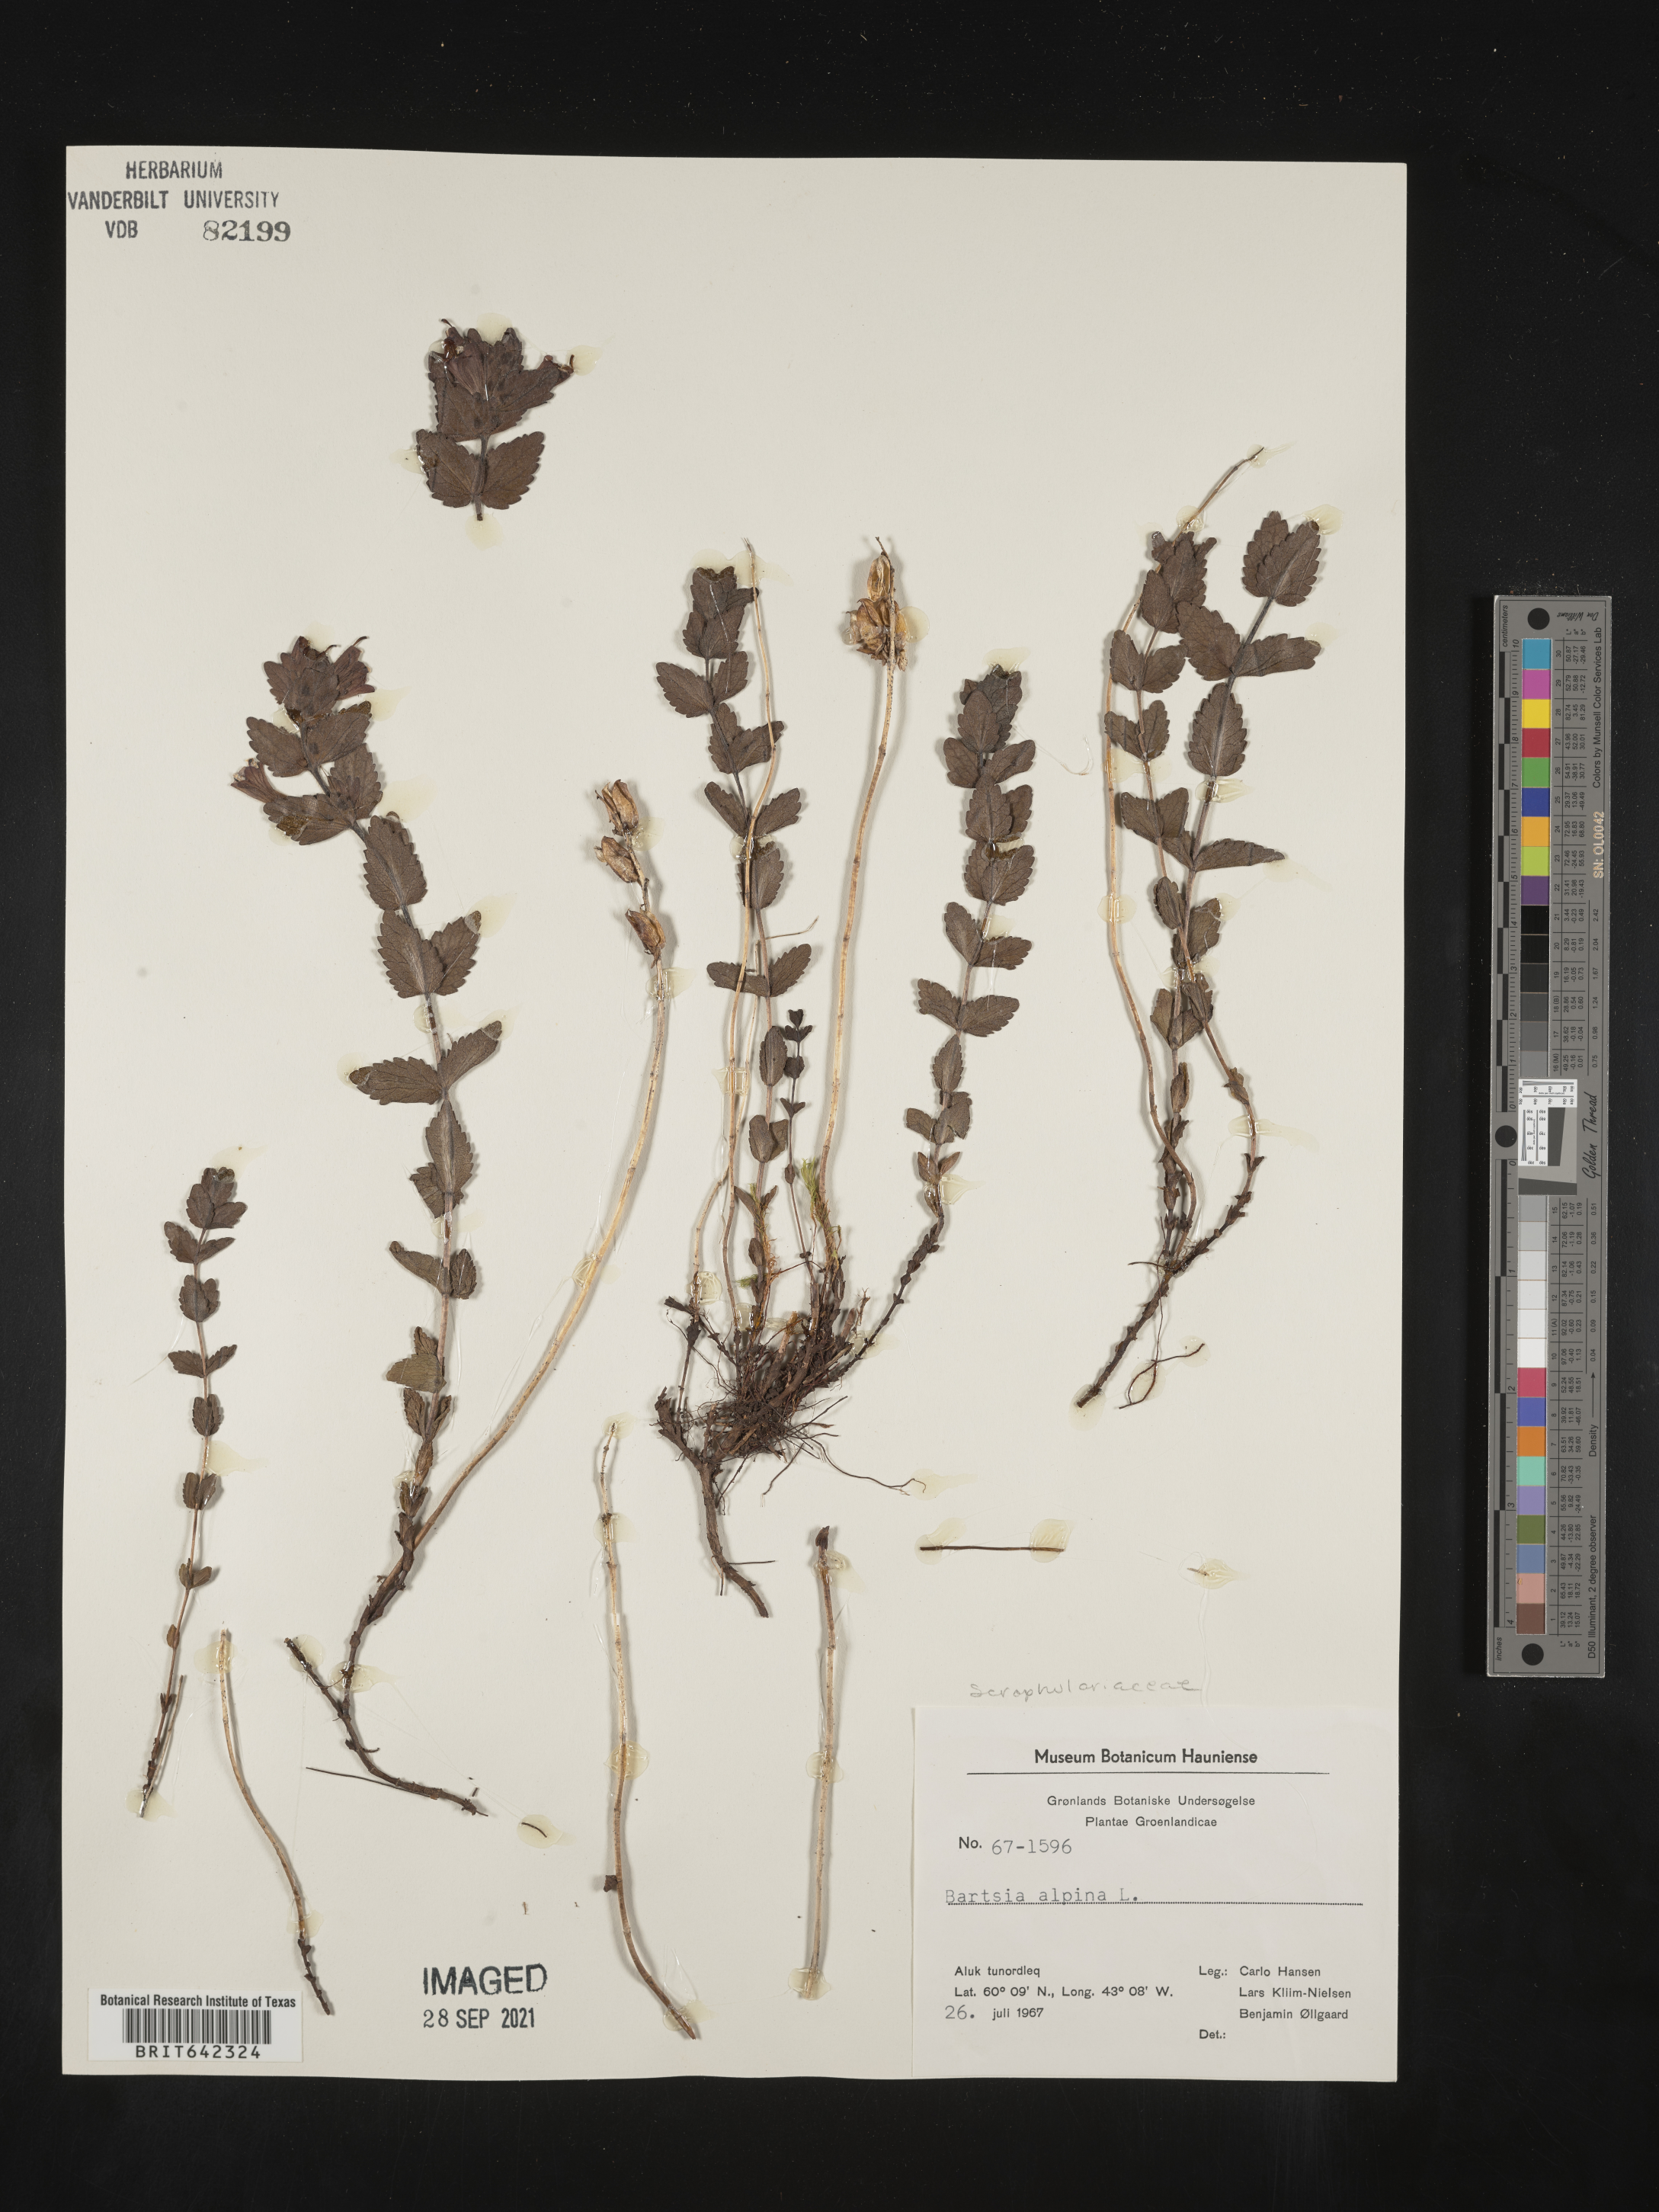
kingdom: Plantae
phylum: Tracheophyta
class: Magnoliopsida
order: Lamiales
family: Orobanchaceae
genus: Bartsia
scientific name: Bartsia
